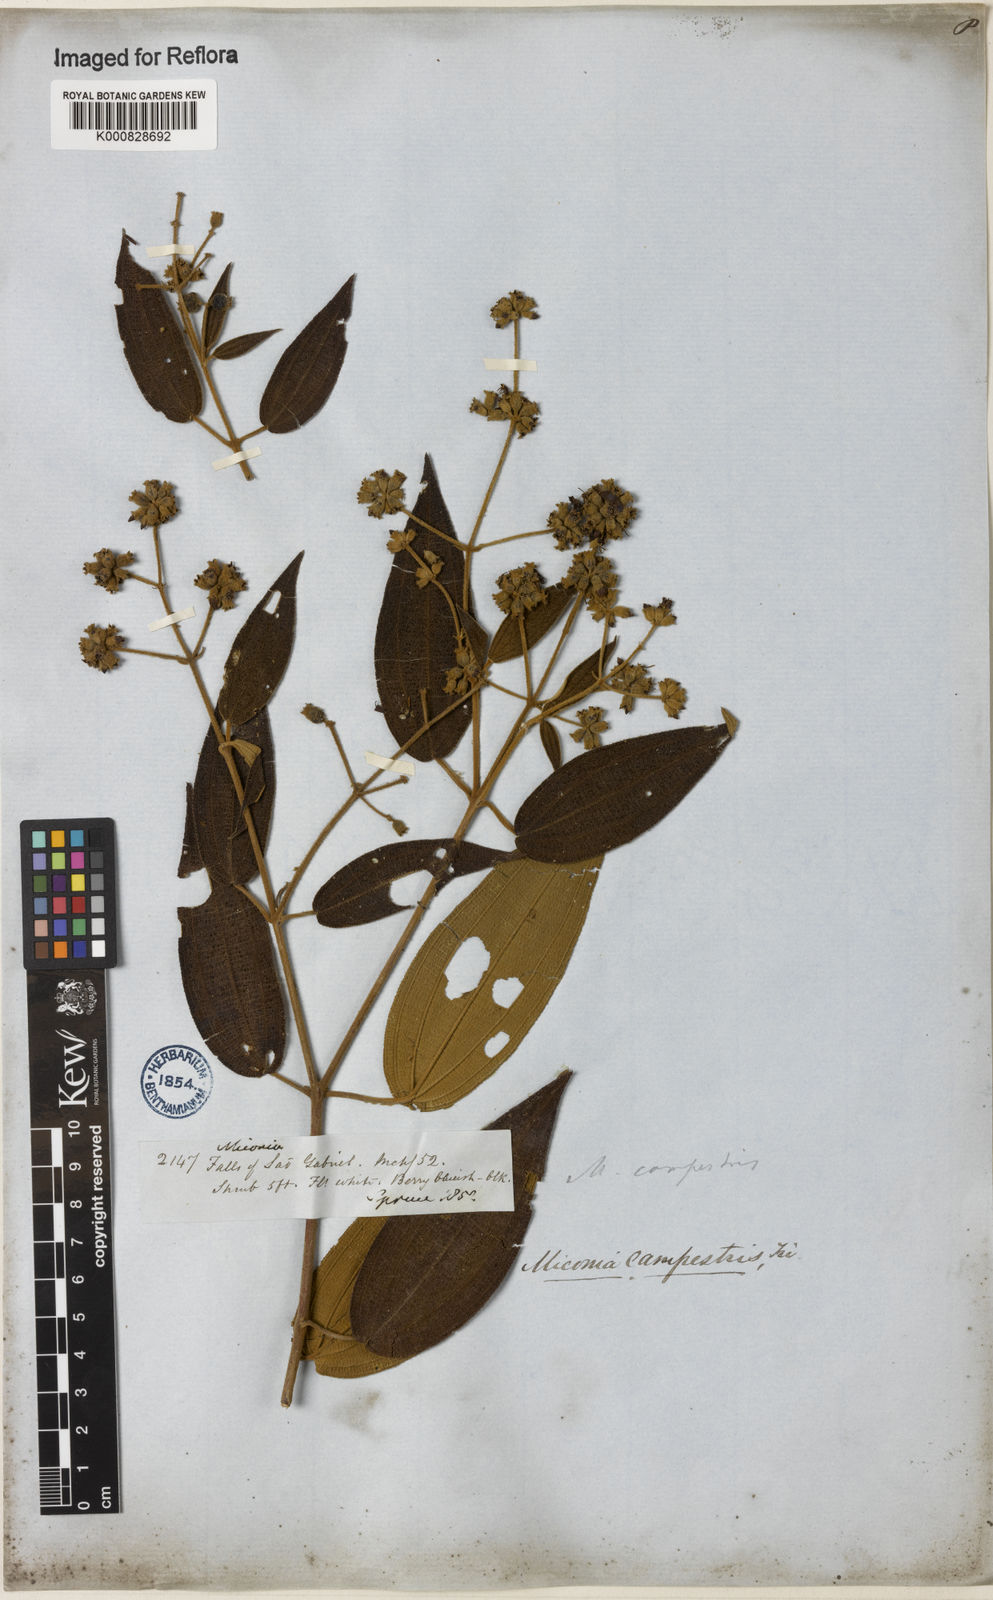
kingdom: Plantae
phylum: Tracheophyta
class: Magnoliopsida
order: Myrtales
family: Melastomataceae
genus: Miconia
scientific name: Miconia campestris
